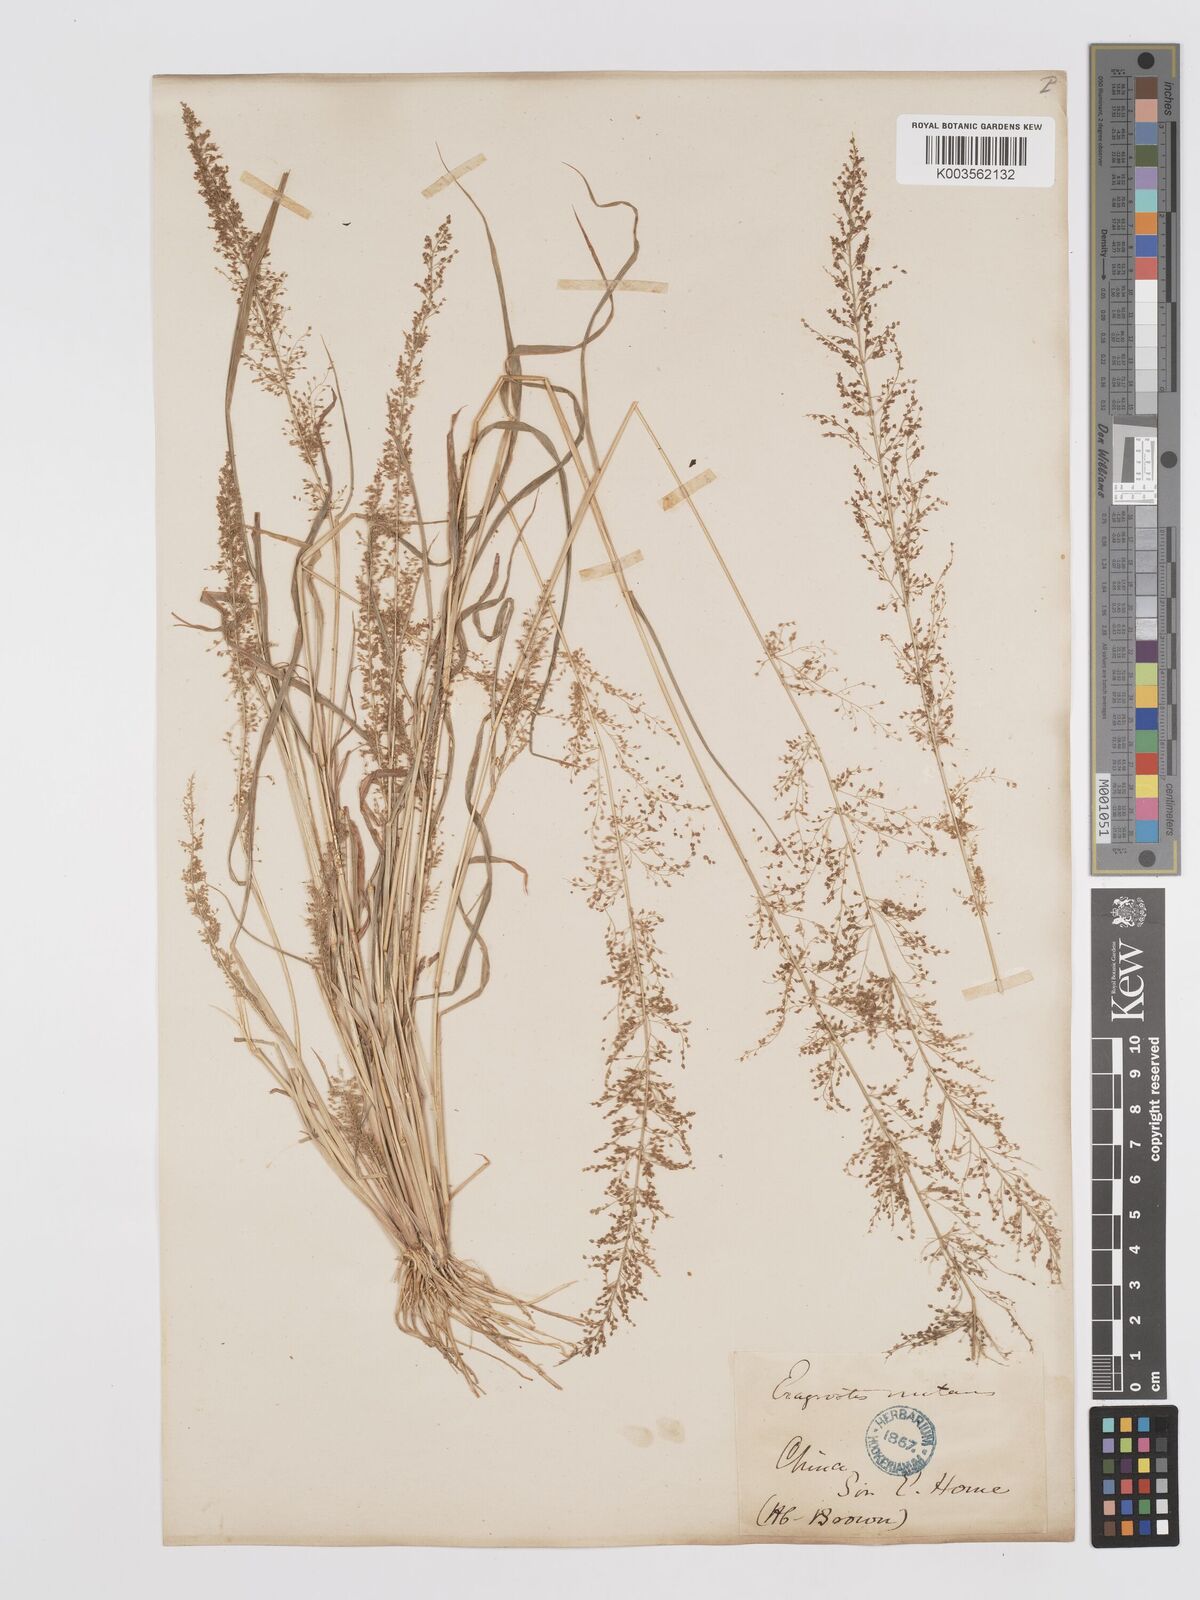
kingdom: Plantae
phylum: Tracheophyta
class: Liliopsida
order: Poales
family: Poaceae
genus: Eragrostis
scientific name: Eragrostis japonica
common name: Pond lovegrass
